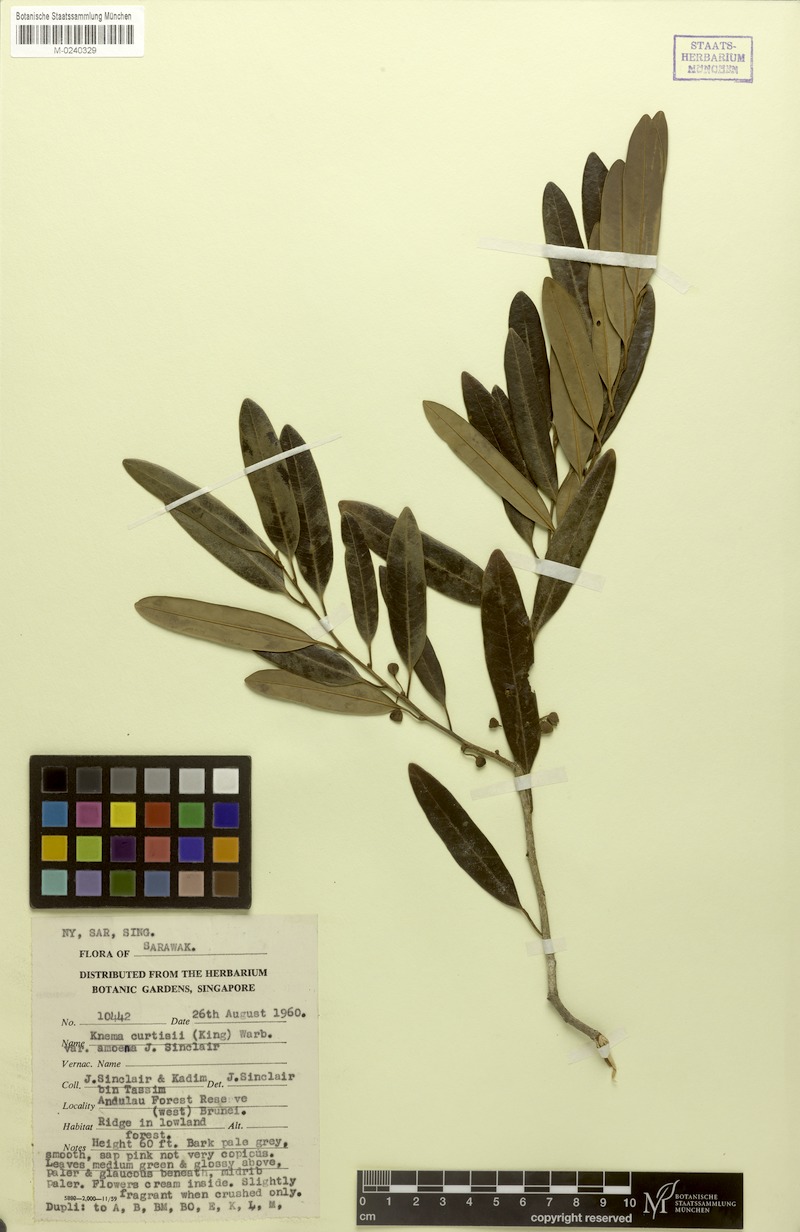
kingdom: Plantae
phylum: Tracheophyta
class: Magnoliopsida
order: Magnoliales
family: Myristicaceae
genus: Knema
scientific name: Knema curtisii
